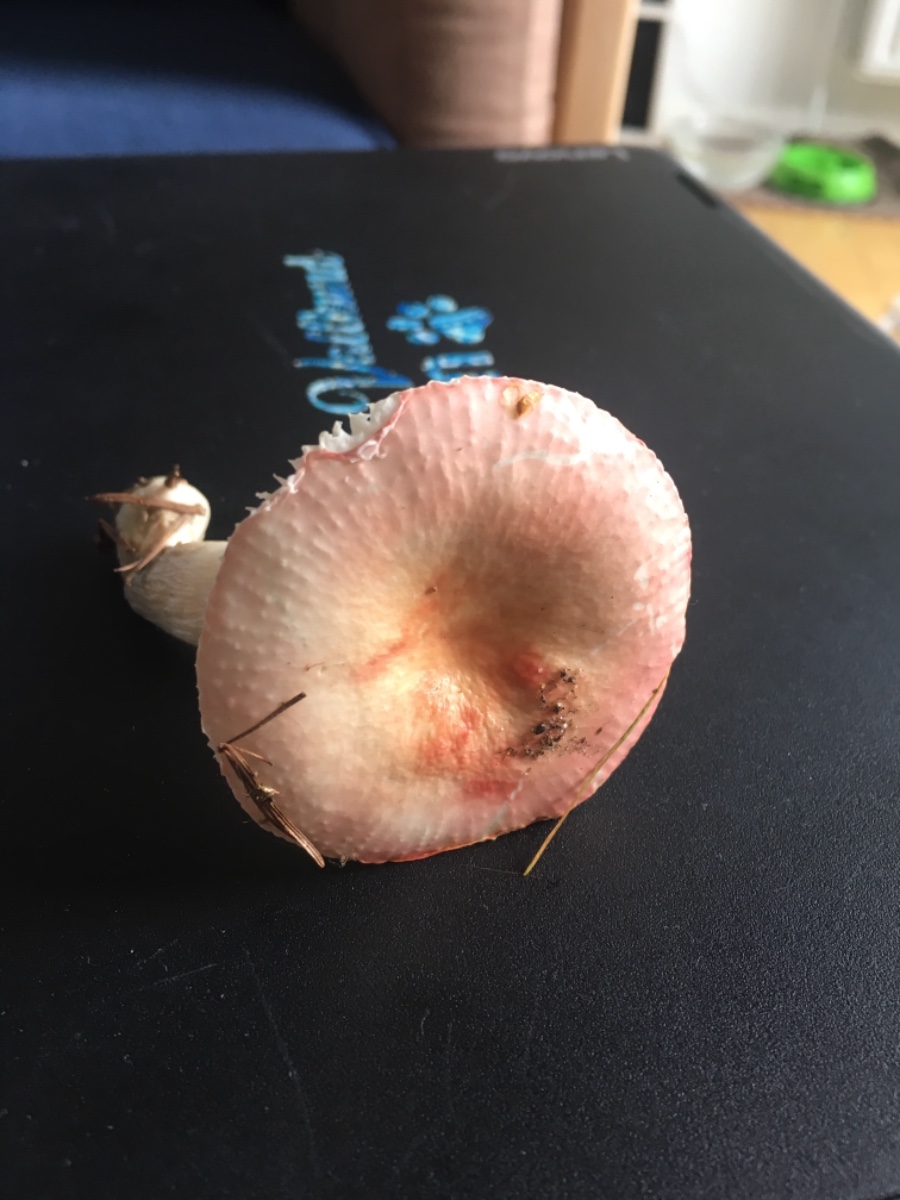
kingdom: Fungi
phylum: Basidiomycota
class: Agaricomycetes
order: Russulales
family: Russulaceae
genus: Russula
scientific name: Russula
